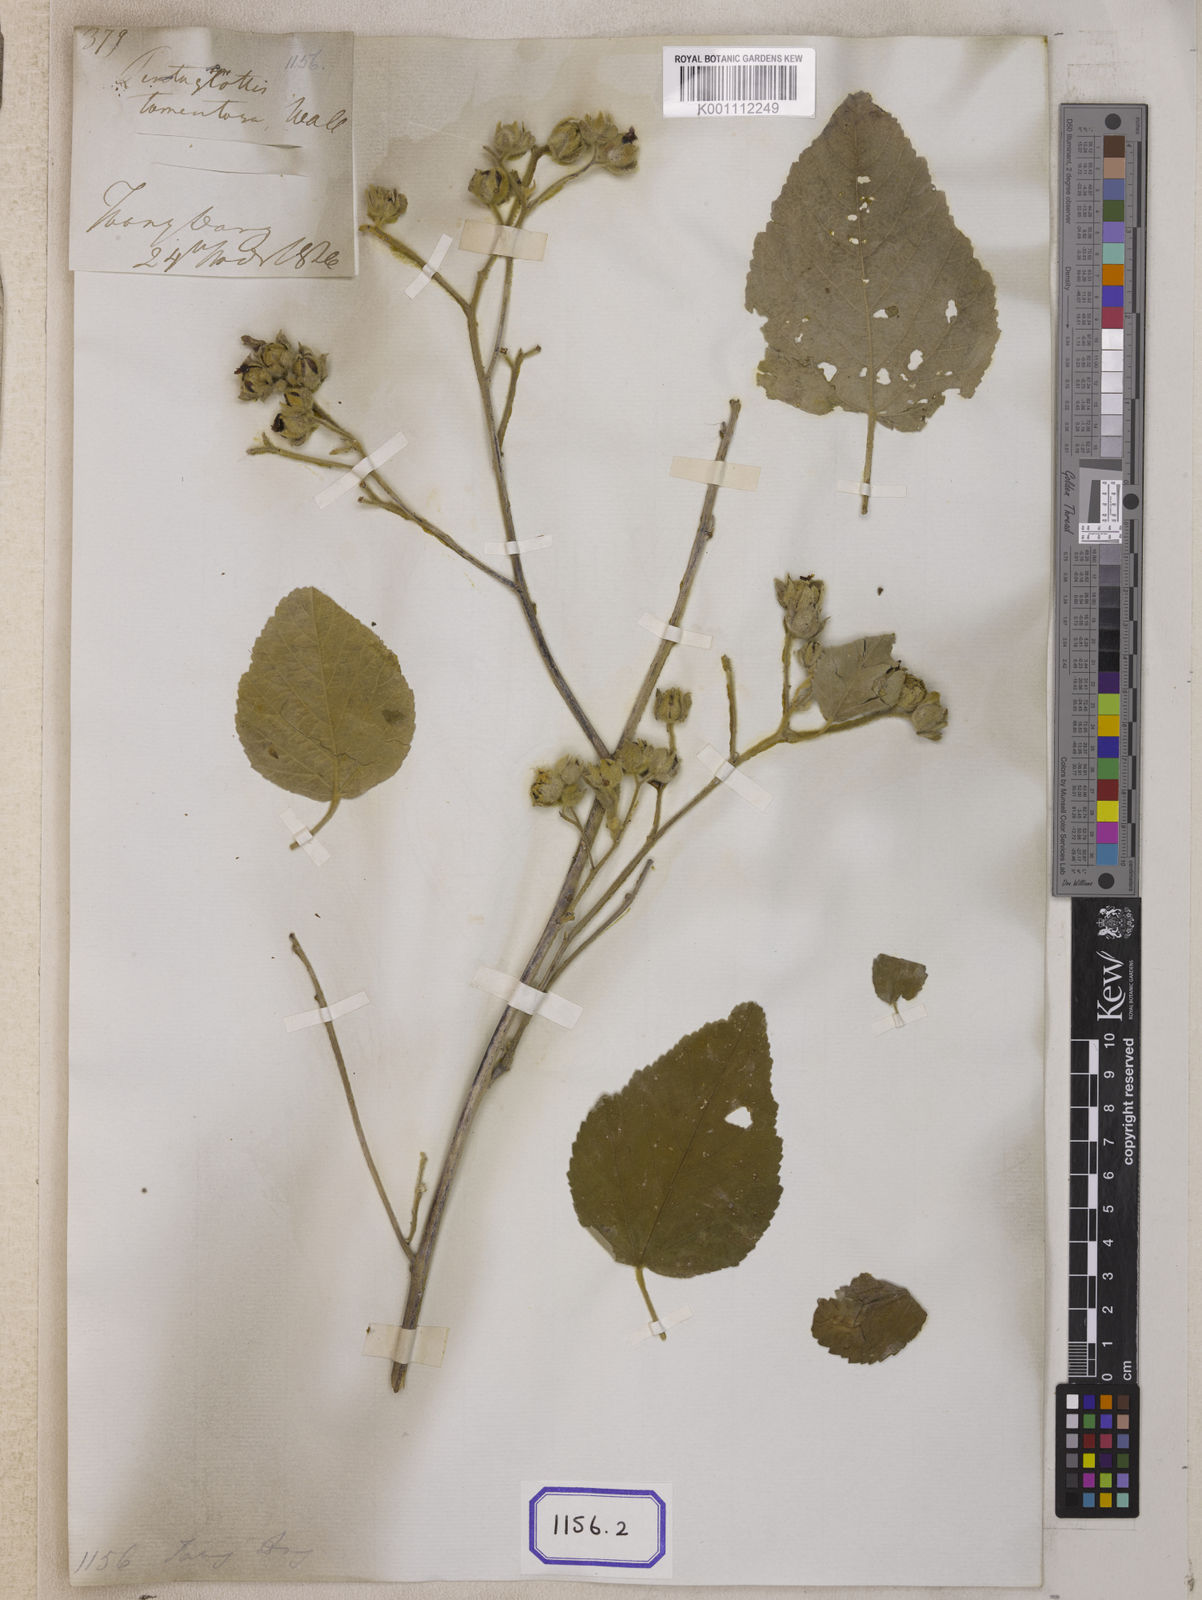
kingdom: Plantae
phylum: Tracheophyta
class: Magnoliopsida
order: Malvales
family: Malvaceae
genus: Melhania
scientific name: Melhania hamiltoniana
